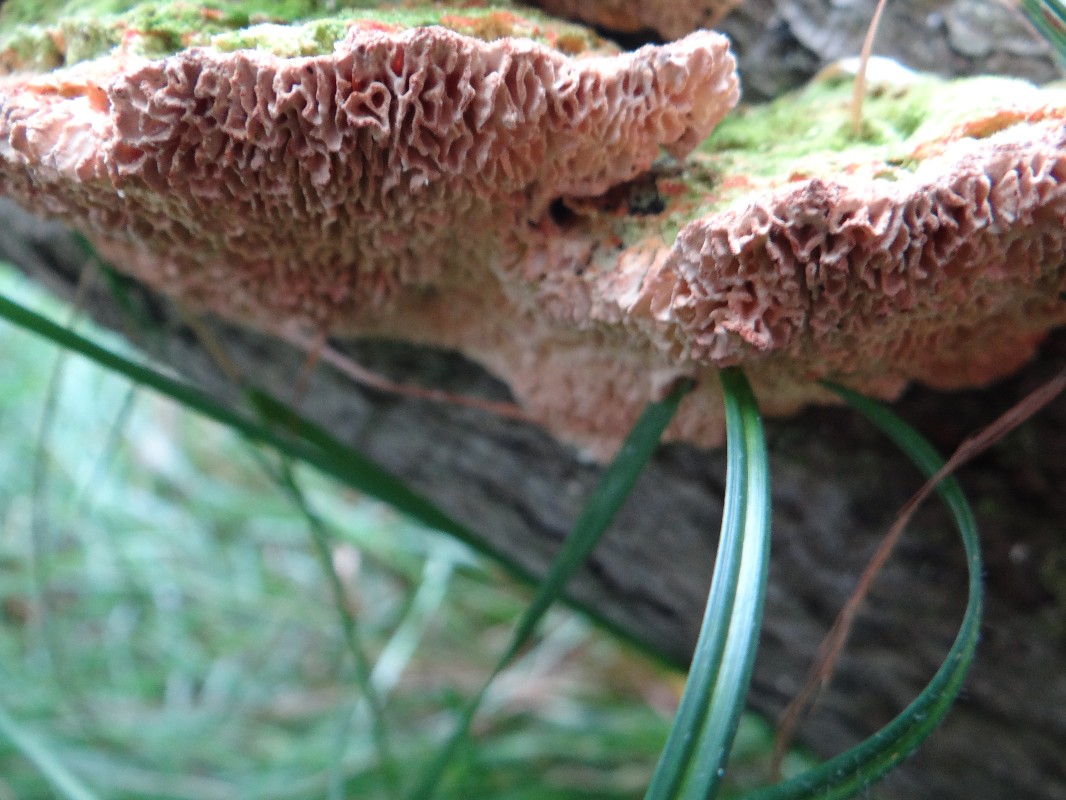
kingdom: Fungi
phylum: Basidiomycota
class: Agaricomycetes
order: Polyporales
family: Polyporaceae
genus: Lenzites
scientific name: Lenzites betulinus
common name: birke-læderporesvamp
